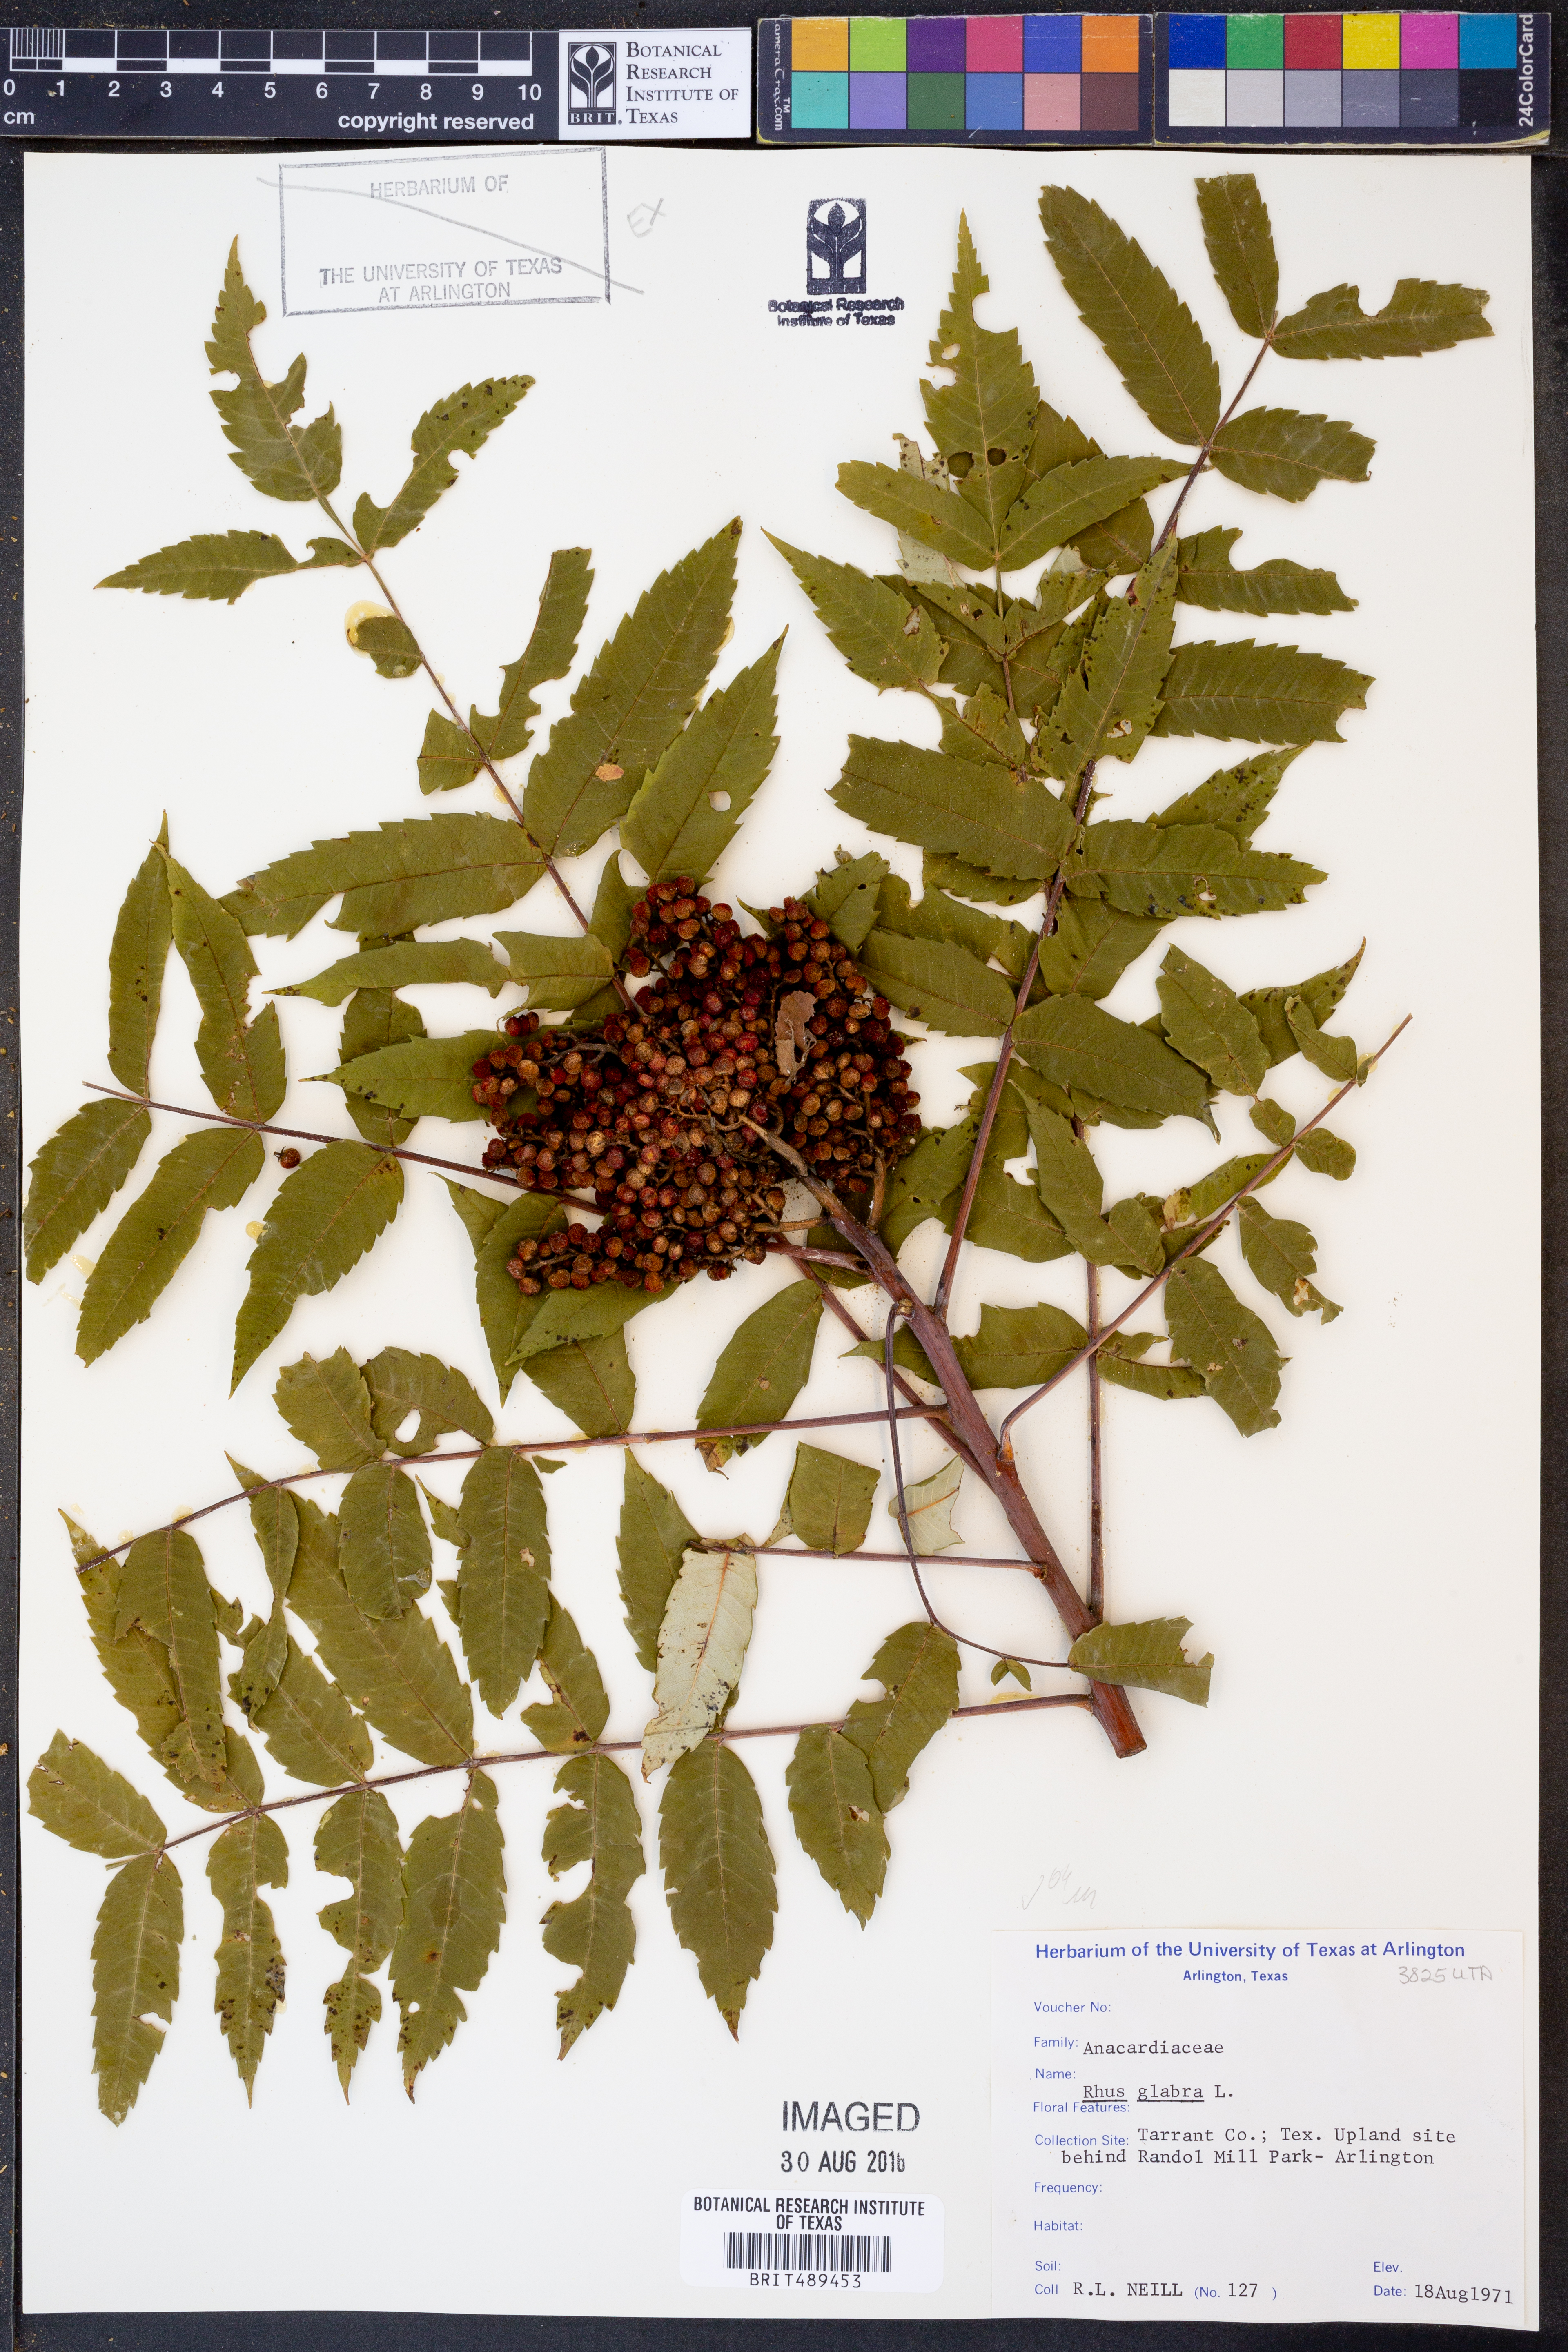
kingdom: Plantae
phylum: Tracheophyta
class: Magnoliopsida
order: Sapindales
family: Anacardiaceae
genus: Rhus
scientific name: Rhus glabra
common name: Scarlet sumac
